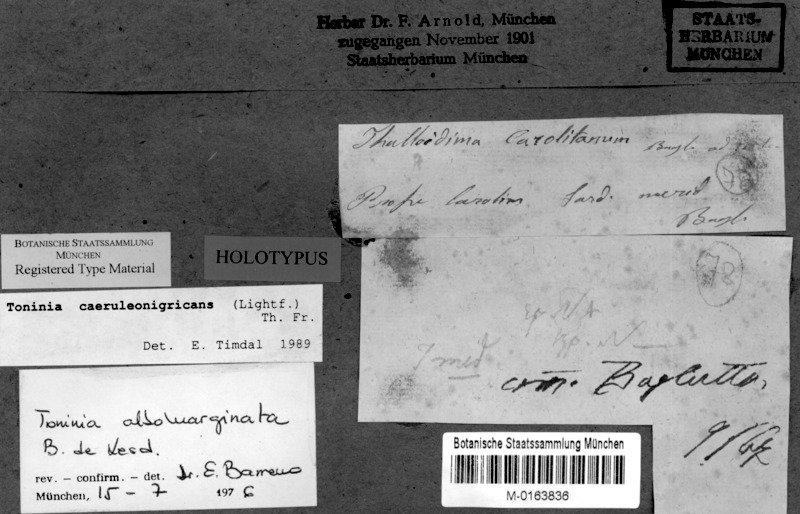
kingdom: Fungi
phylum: Ascomycota
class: Lecanoromycetes
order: Lecanorales
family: Ramalinaceae
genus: Thalloidima
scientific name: Thalloidima sedifolium
